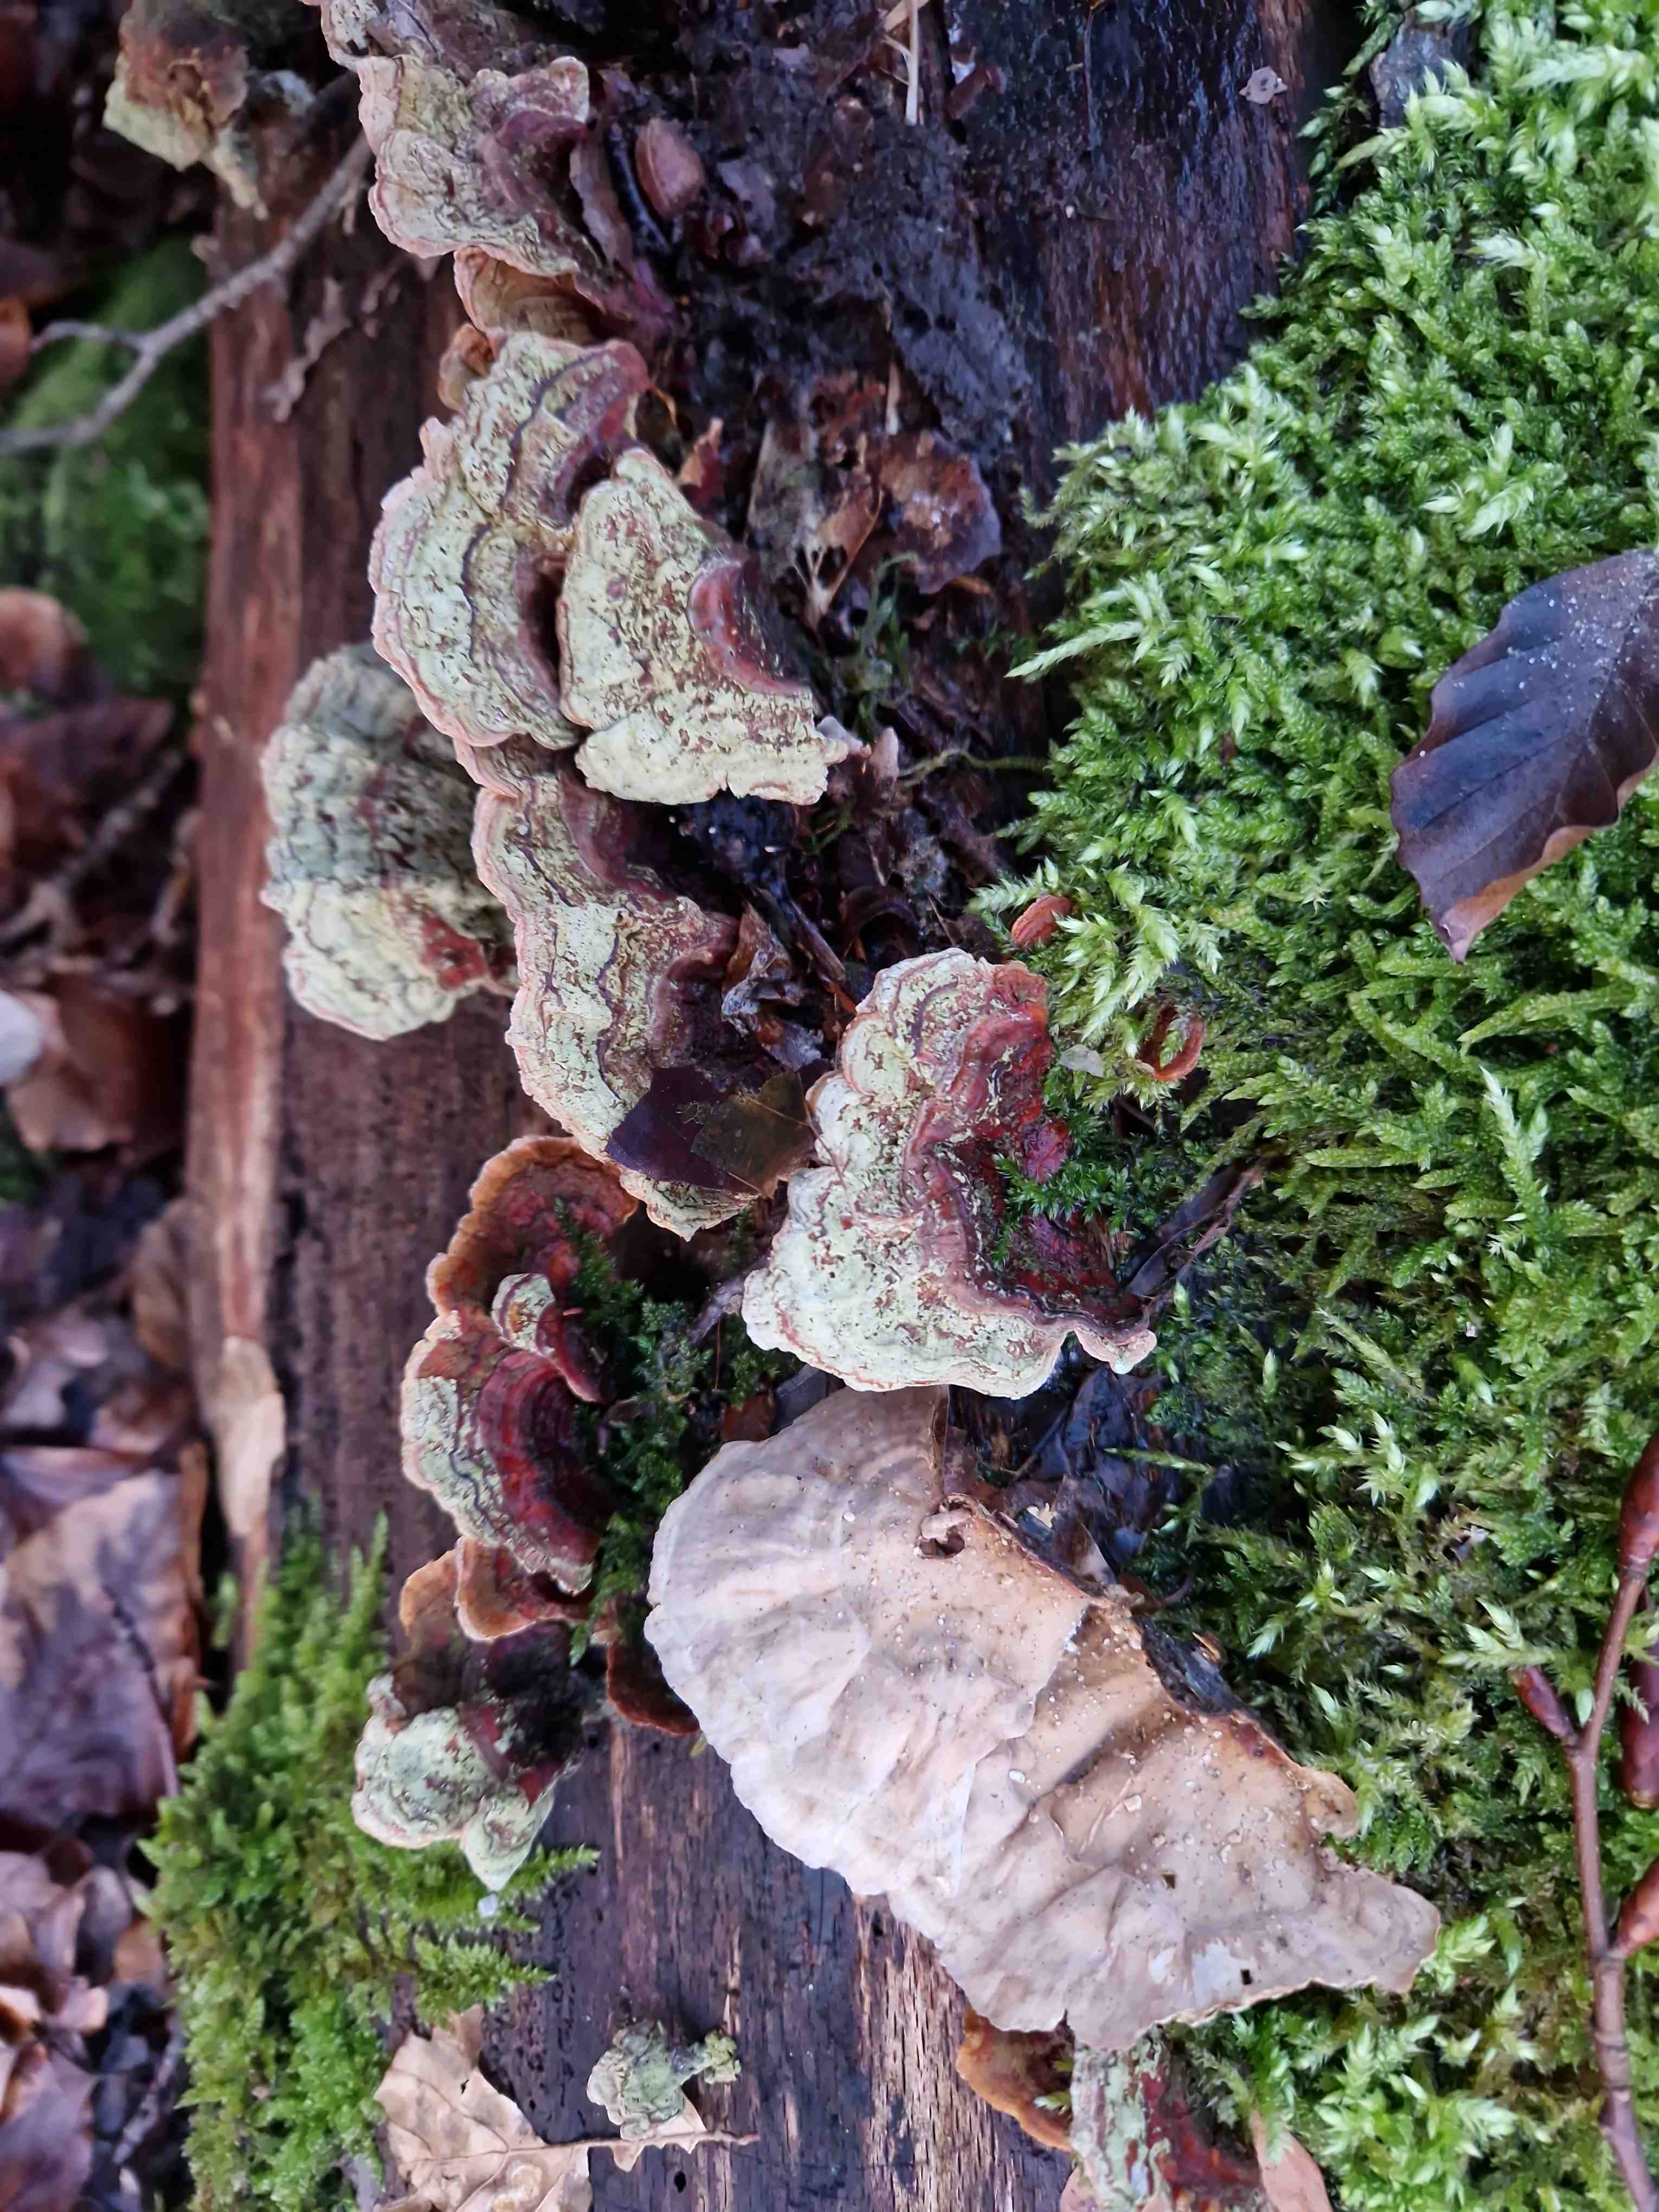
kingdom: Fungi
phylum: Basidiomycota
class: Agaricomycetes
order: Russulales
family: Stereaceae
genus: Stereum
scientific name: Stereum subtomentosum
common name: smuk lædersvamp
